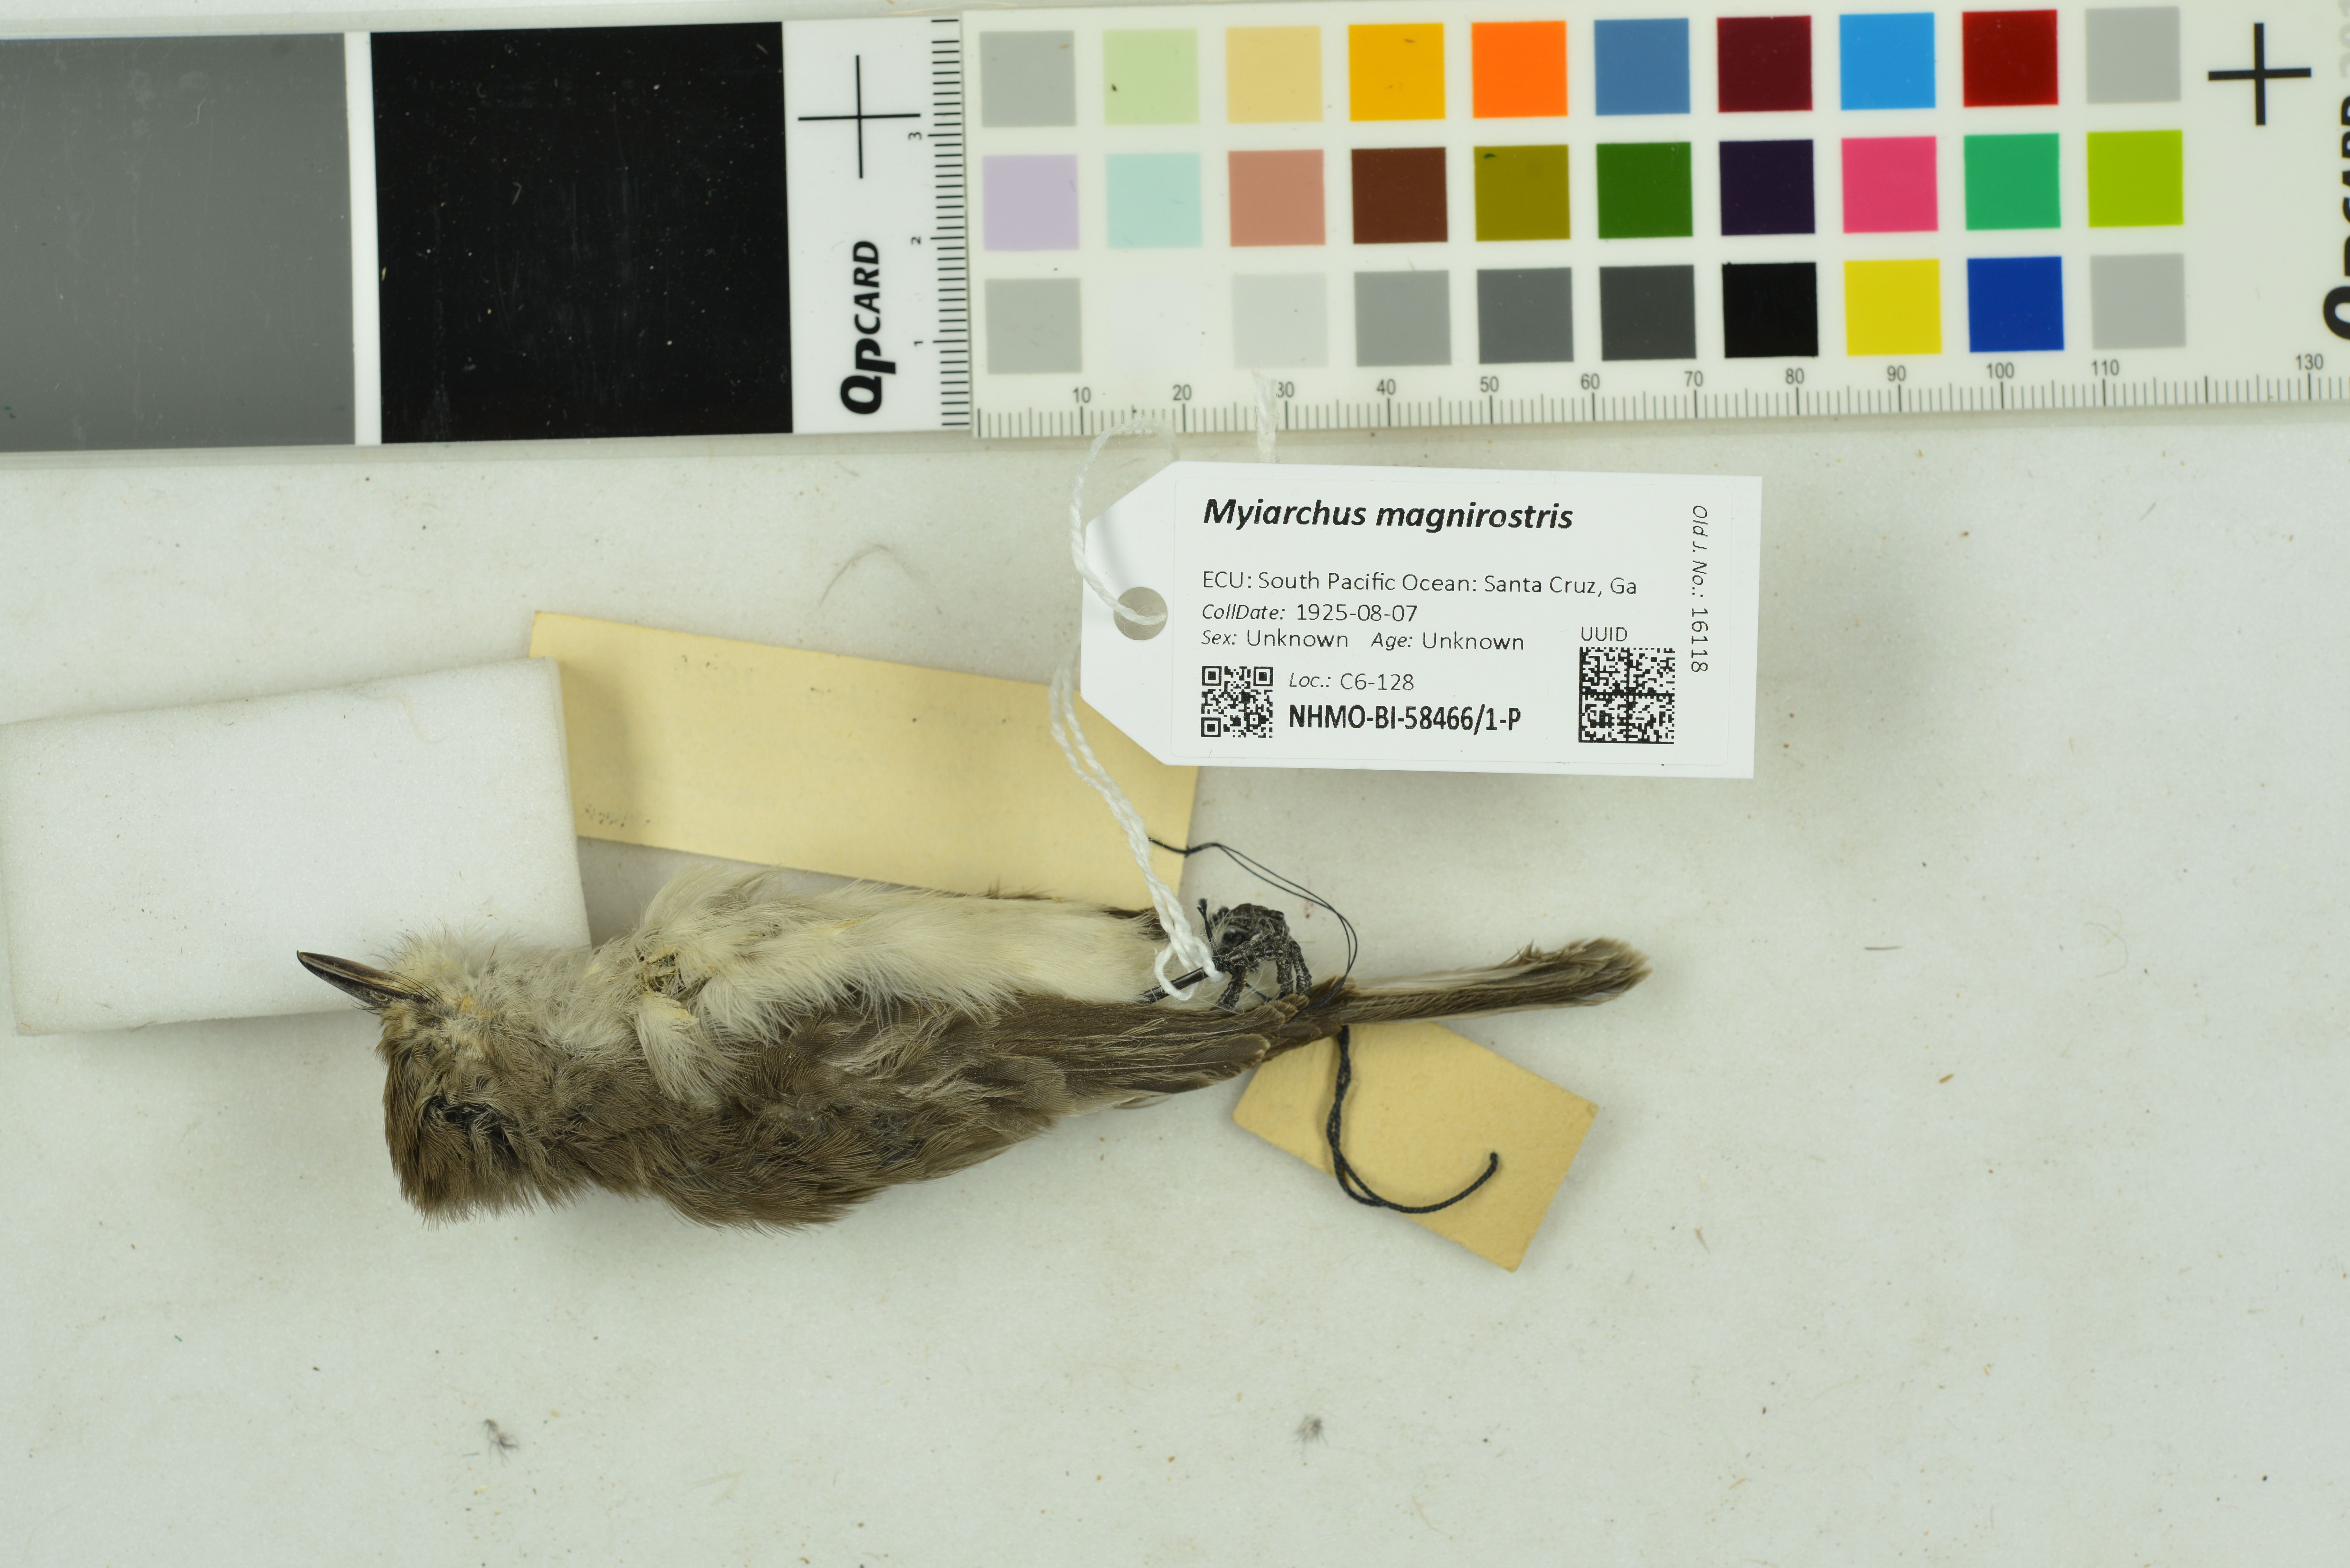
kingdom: Animalia
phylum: Chordata
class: Aves
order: Passeriformes
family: Tyrannidae
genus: Myiarchus
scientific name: Myiarchus magnirostris
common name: Galapagos flycatcher
